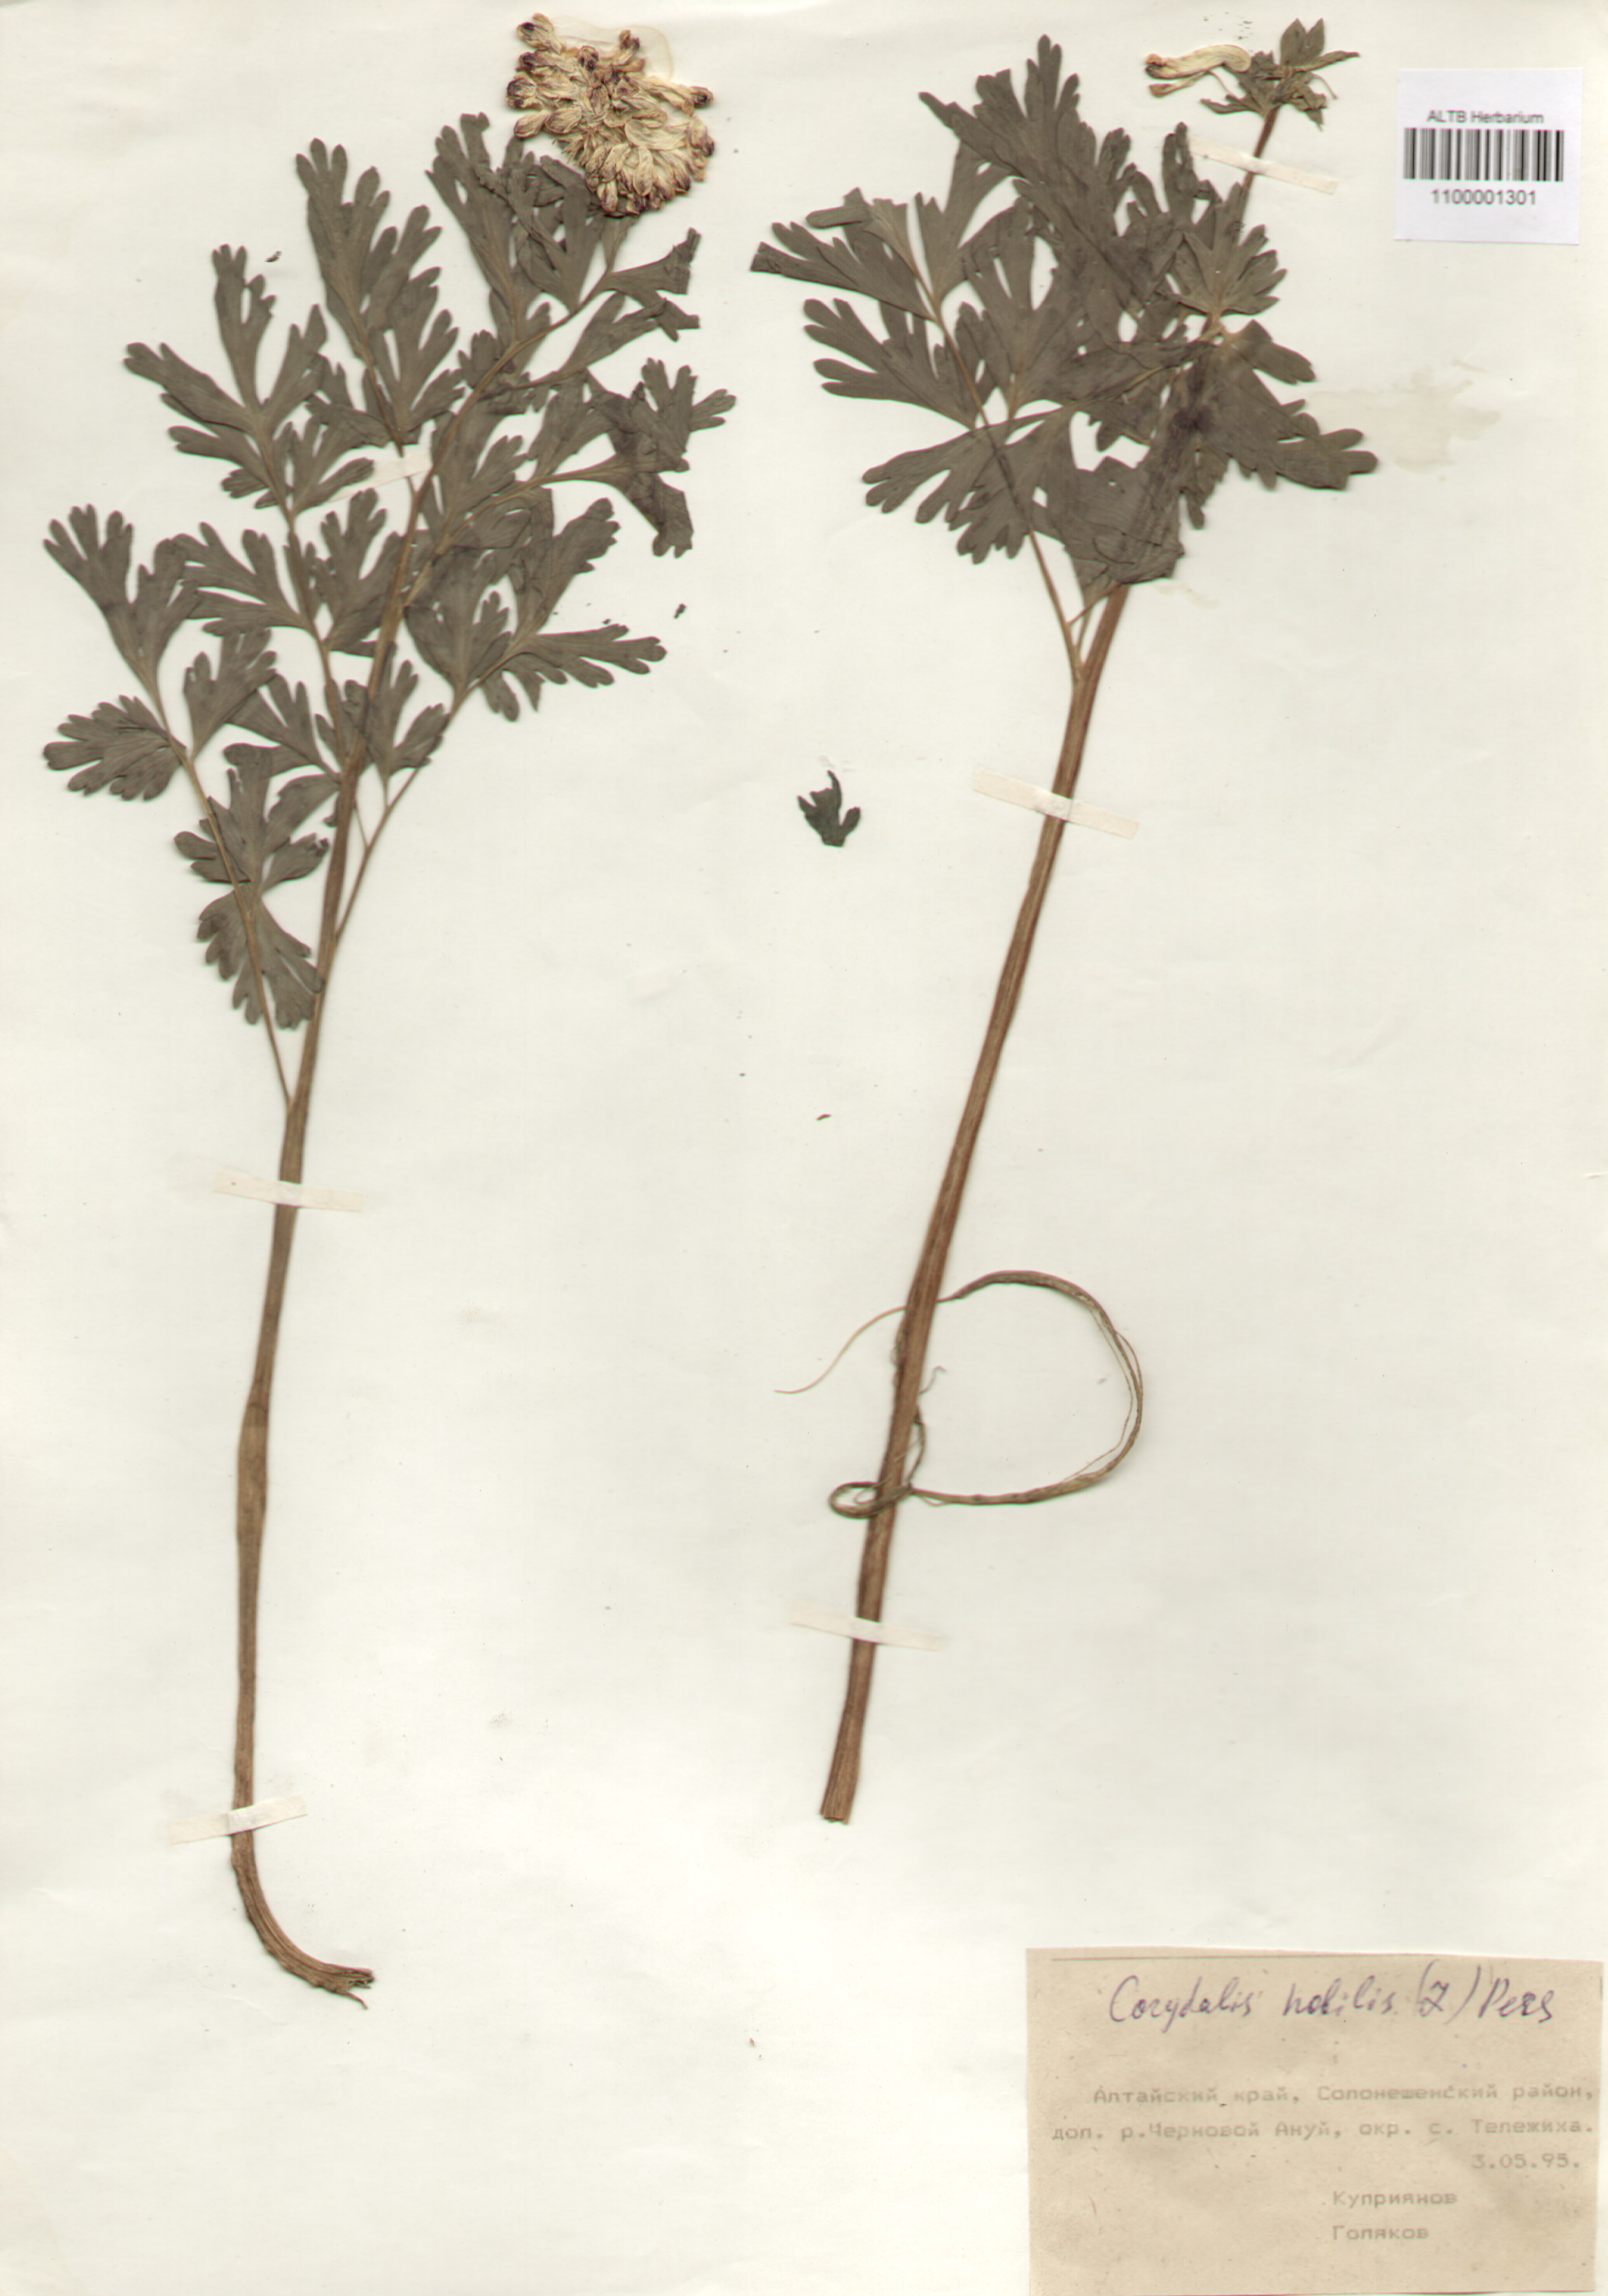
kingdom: Plantae
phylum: Tracheophyta
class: Magnoliopsida
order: Ranunculales
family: Papaveraceae
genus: Corydalis
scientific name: Corydalis nobilis
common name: Siberian corydalis
